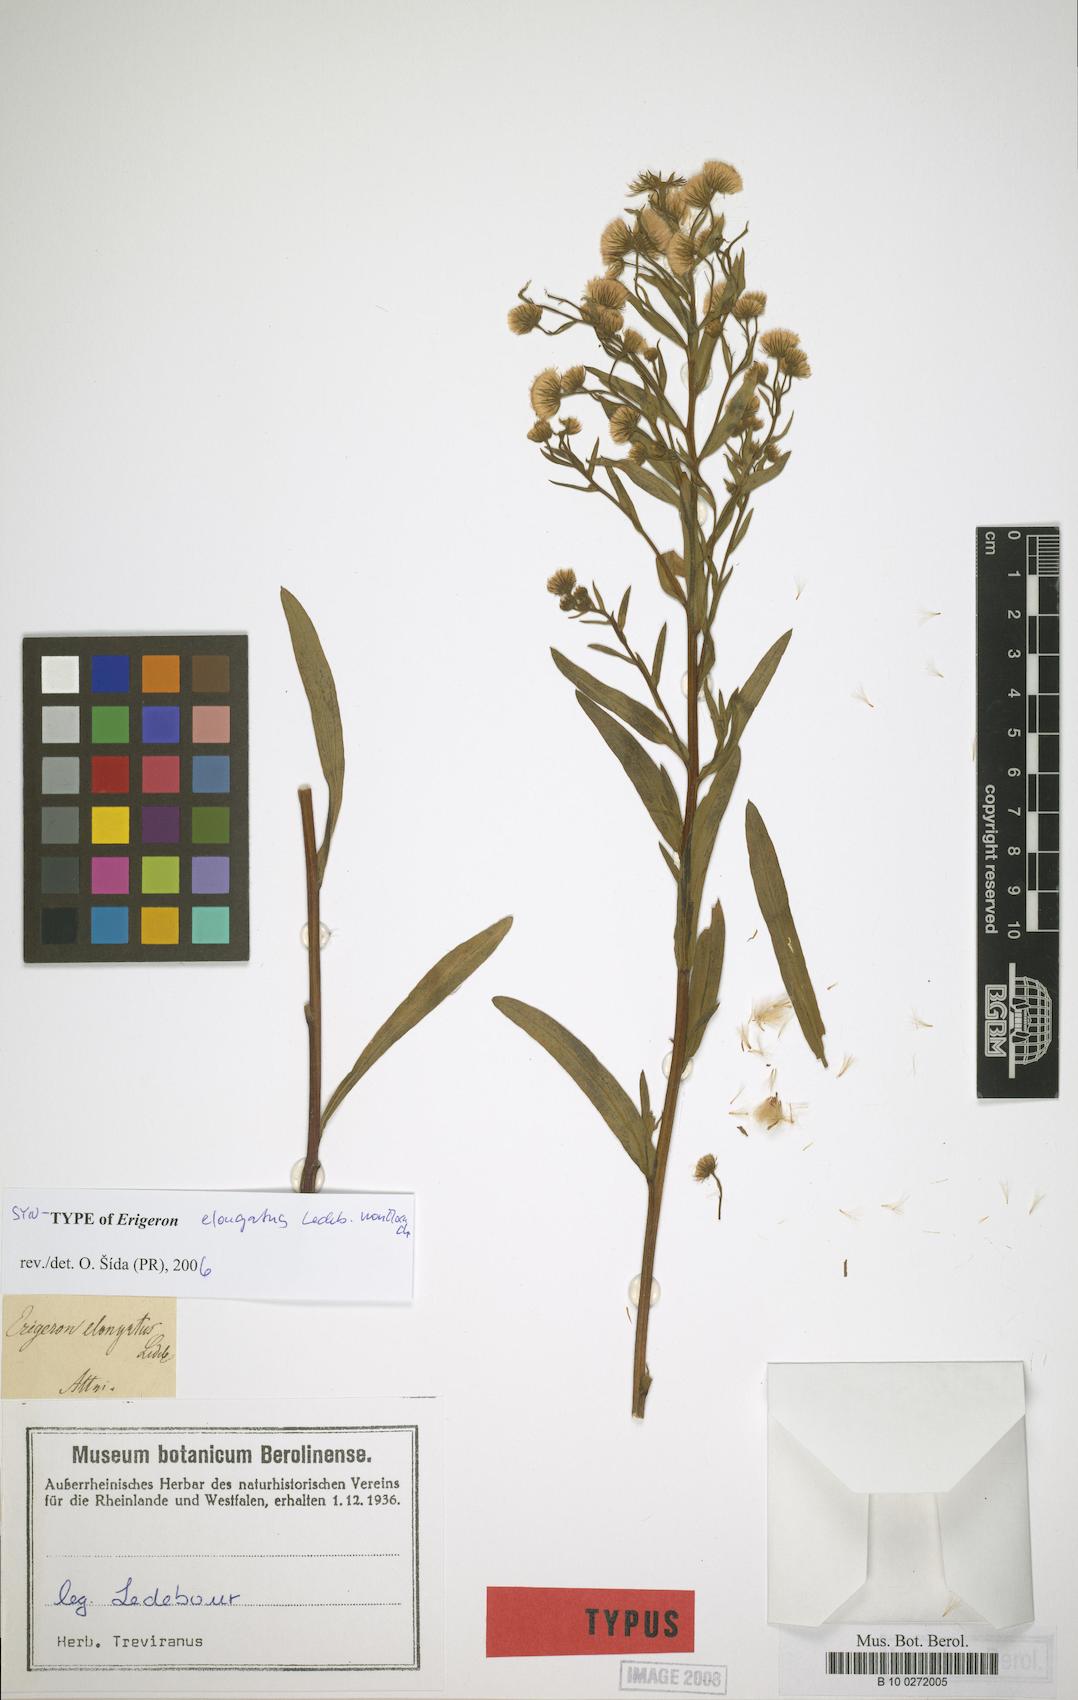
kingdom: Plantae
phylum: Tracheophyta
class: Magnoliopsida
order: Asterales
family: Asteraceae
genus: Erigeron
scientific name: Erigeron politus
